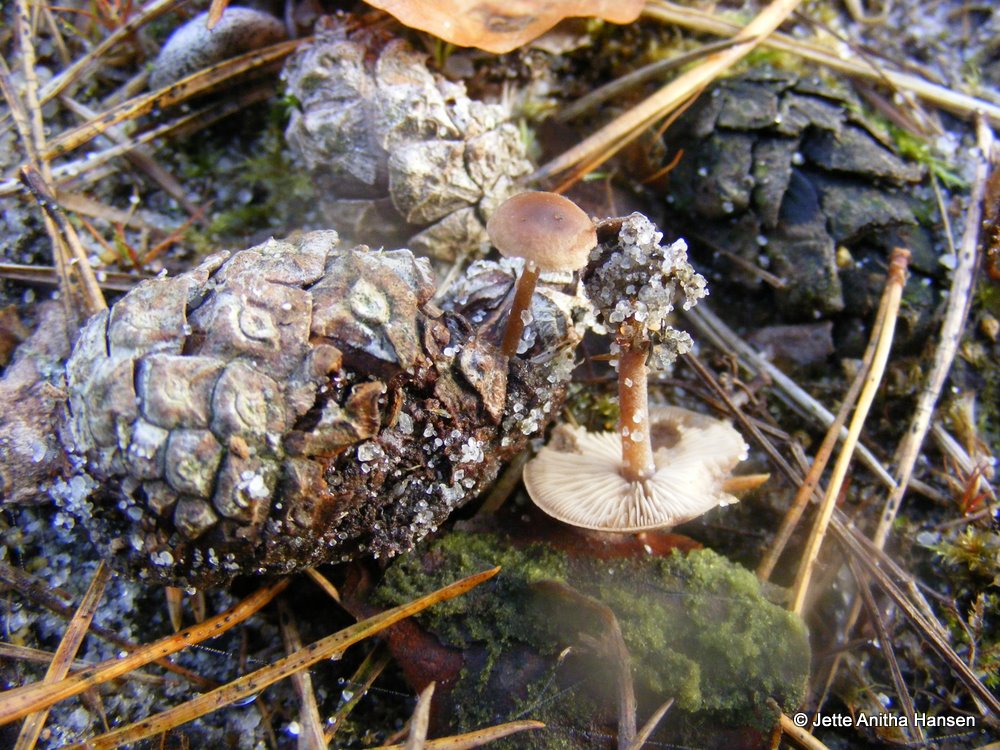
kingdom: Fungi
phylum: Basidiomycota
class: Agaricomycetes
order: Agaricales
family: Marasmiaceae
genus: Baeospora
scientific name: Baeospora myosura
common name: koglebruskhat
